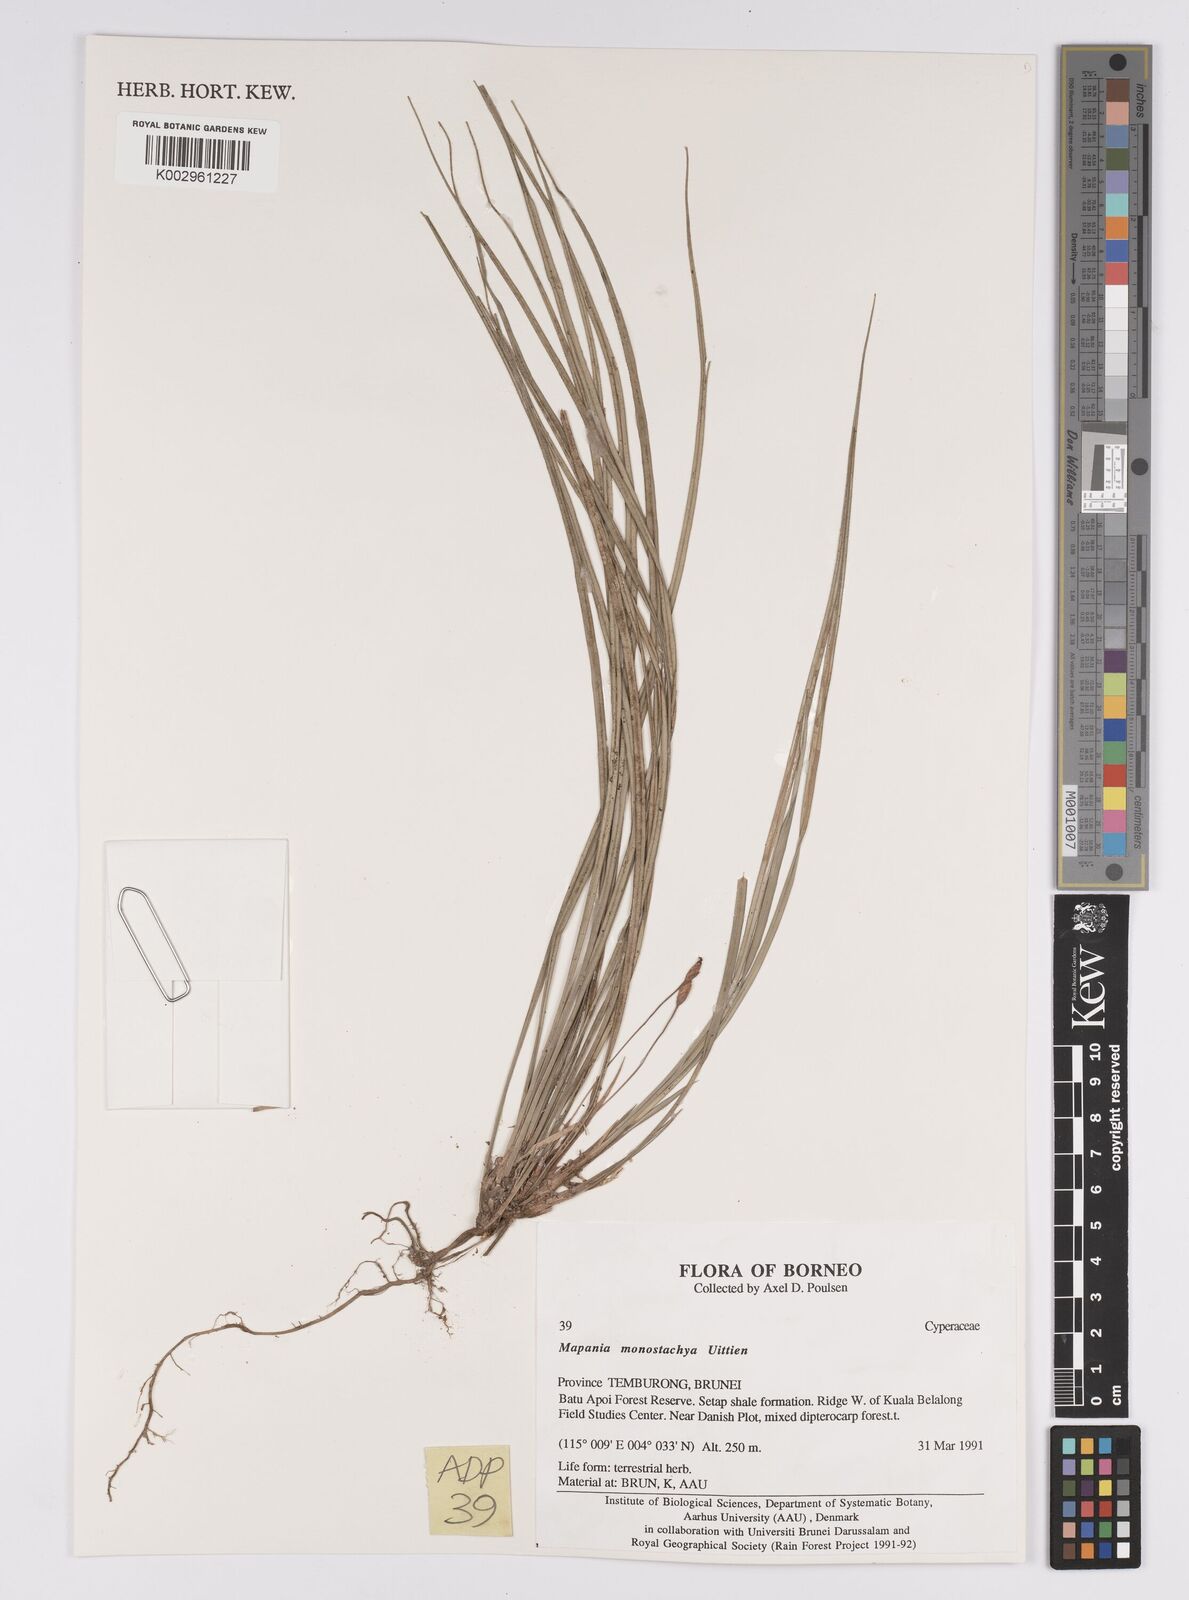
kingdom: Plantae
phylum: Tracheophyta
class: Liliopsida
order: Poales
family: Cyperaceae
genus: Mapania
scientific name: Mapania monostachya
